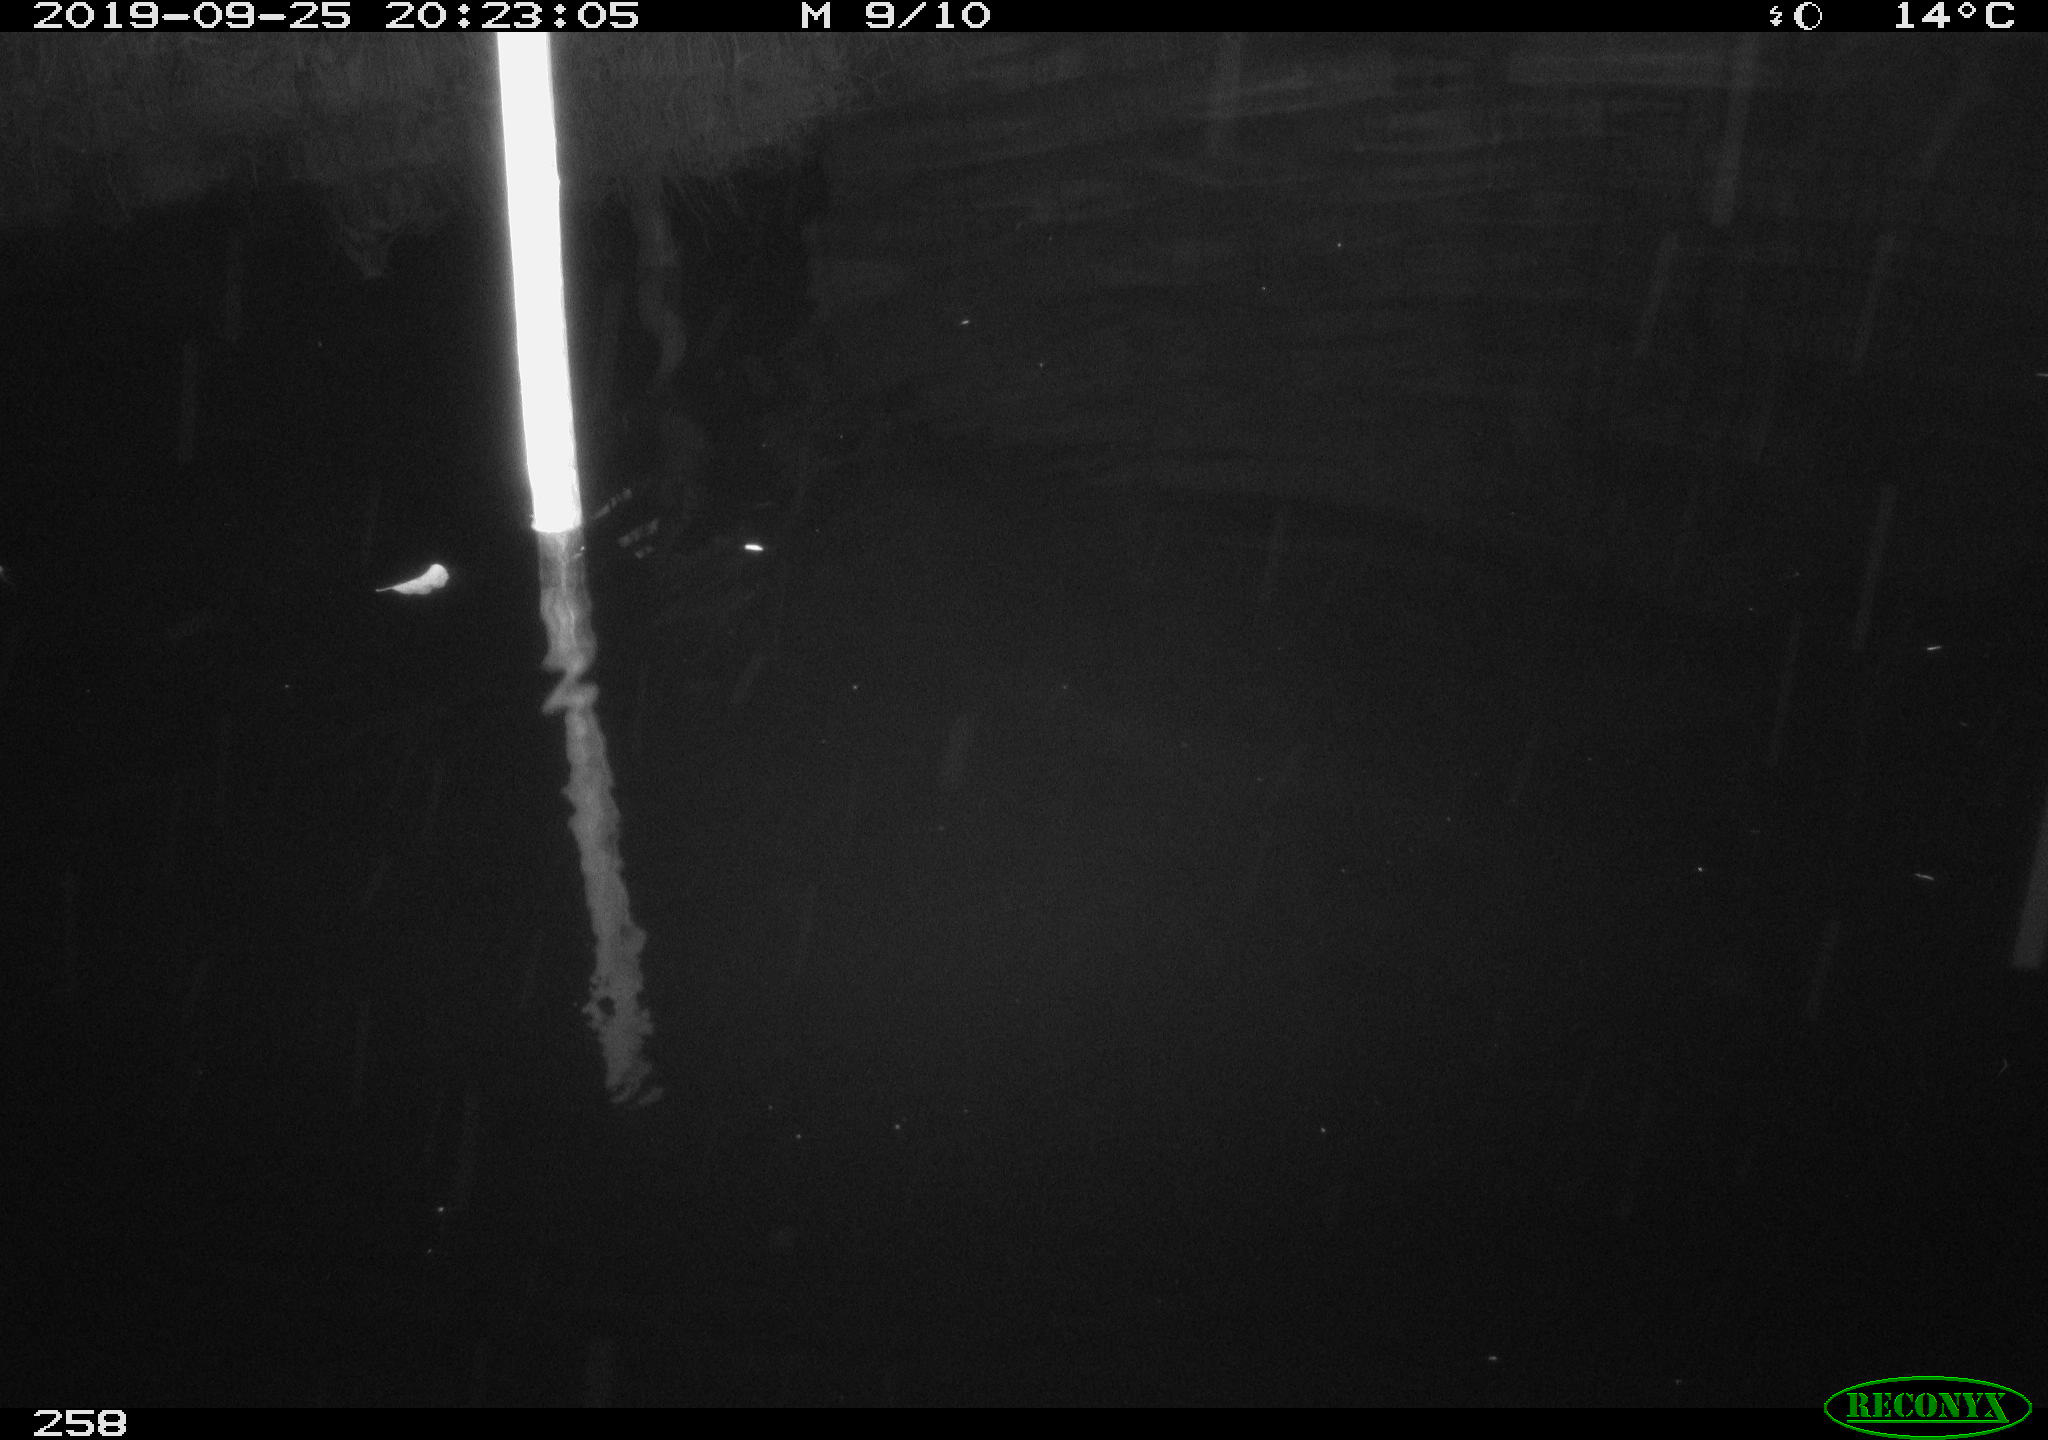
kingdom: Animalia
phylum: Chordata
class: Aves
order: Anseriformes
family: Anatidae
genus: Anas
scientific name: Anas platyrhynchos
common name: Mallard
